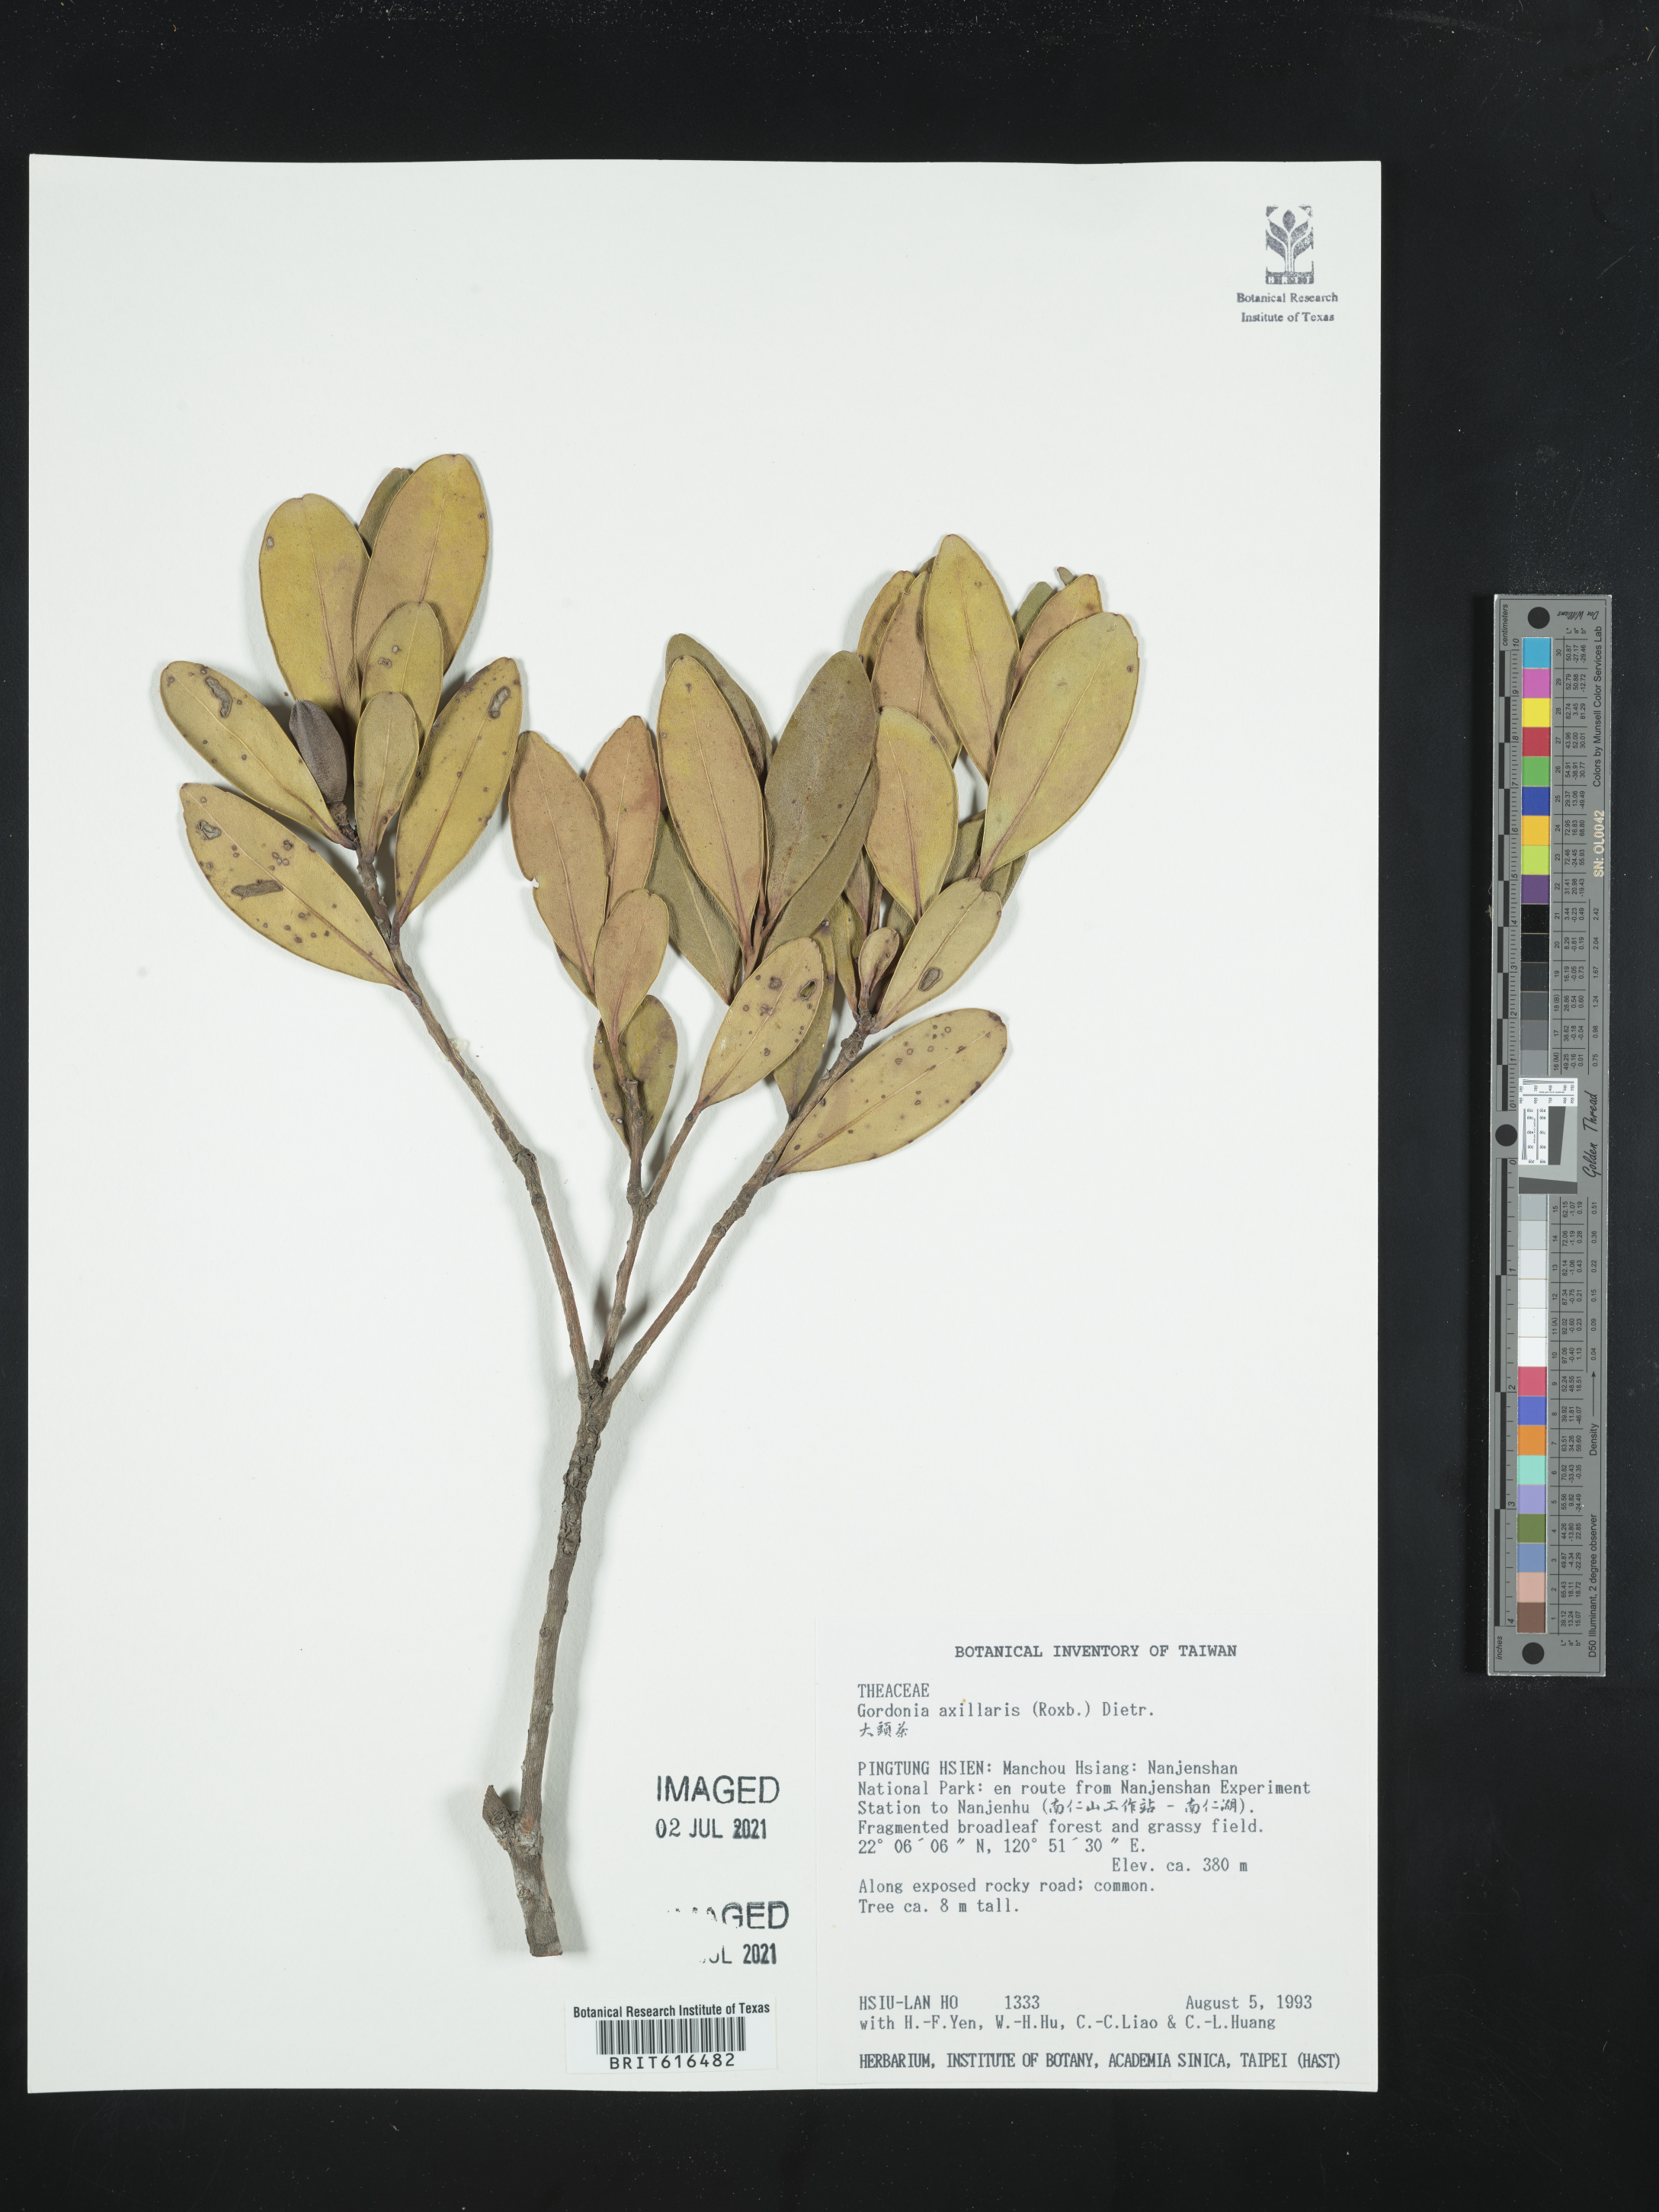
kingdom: Plantae
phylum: Tracheophyta
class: Magnoliopsida
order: Ericales
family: Theaceae
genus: Polyspora
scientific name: Polyspora axillaris
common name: Fried egg tree
